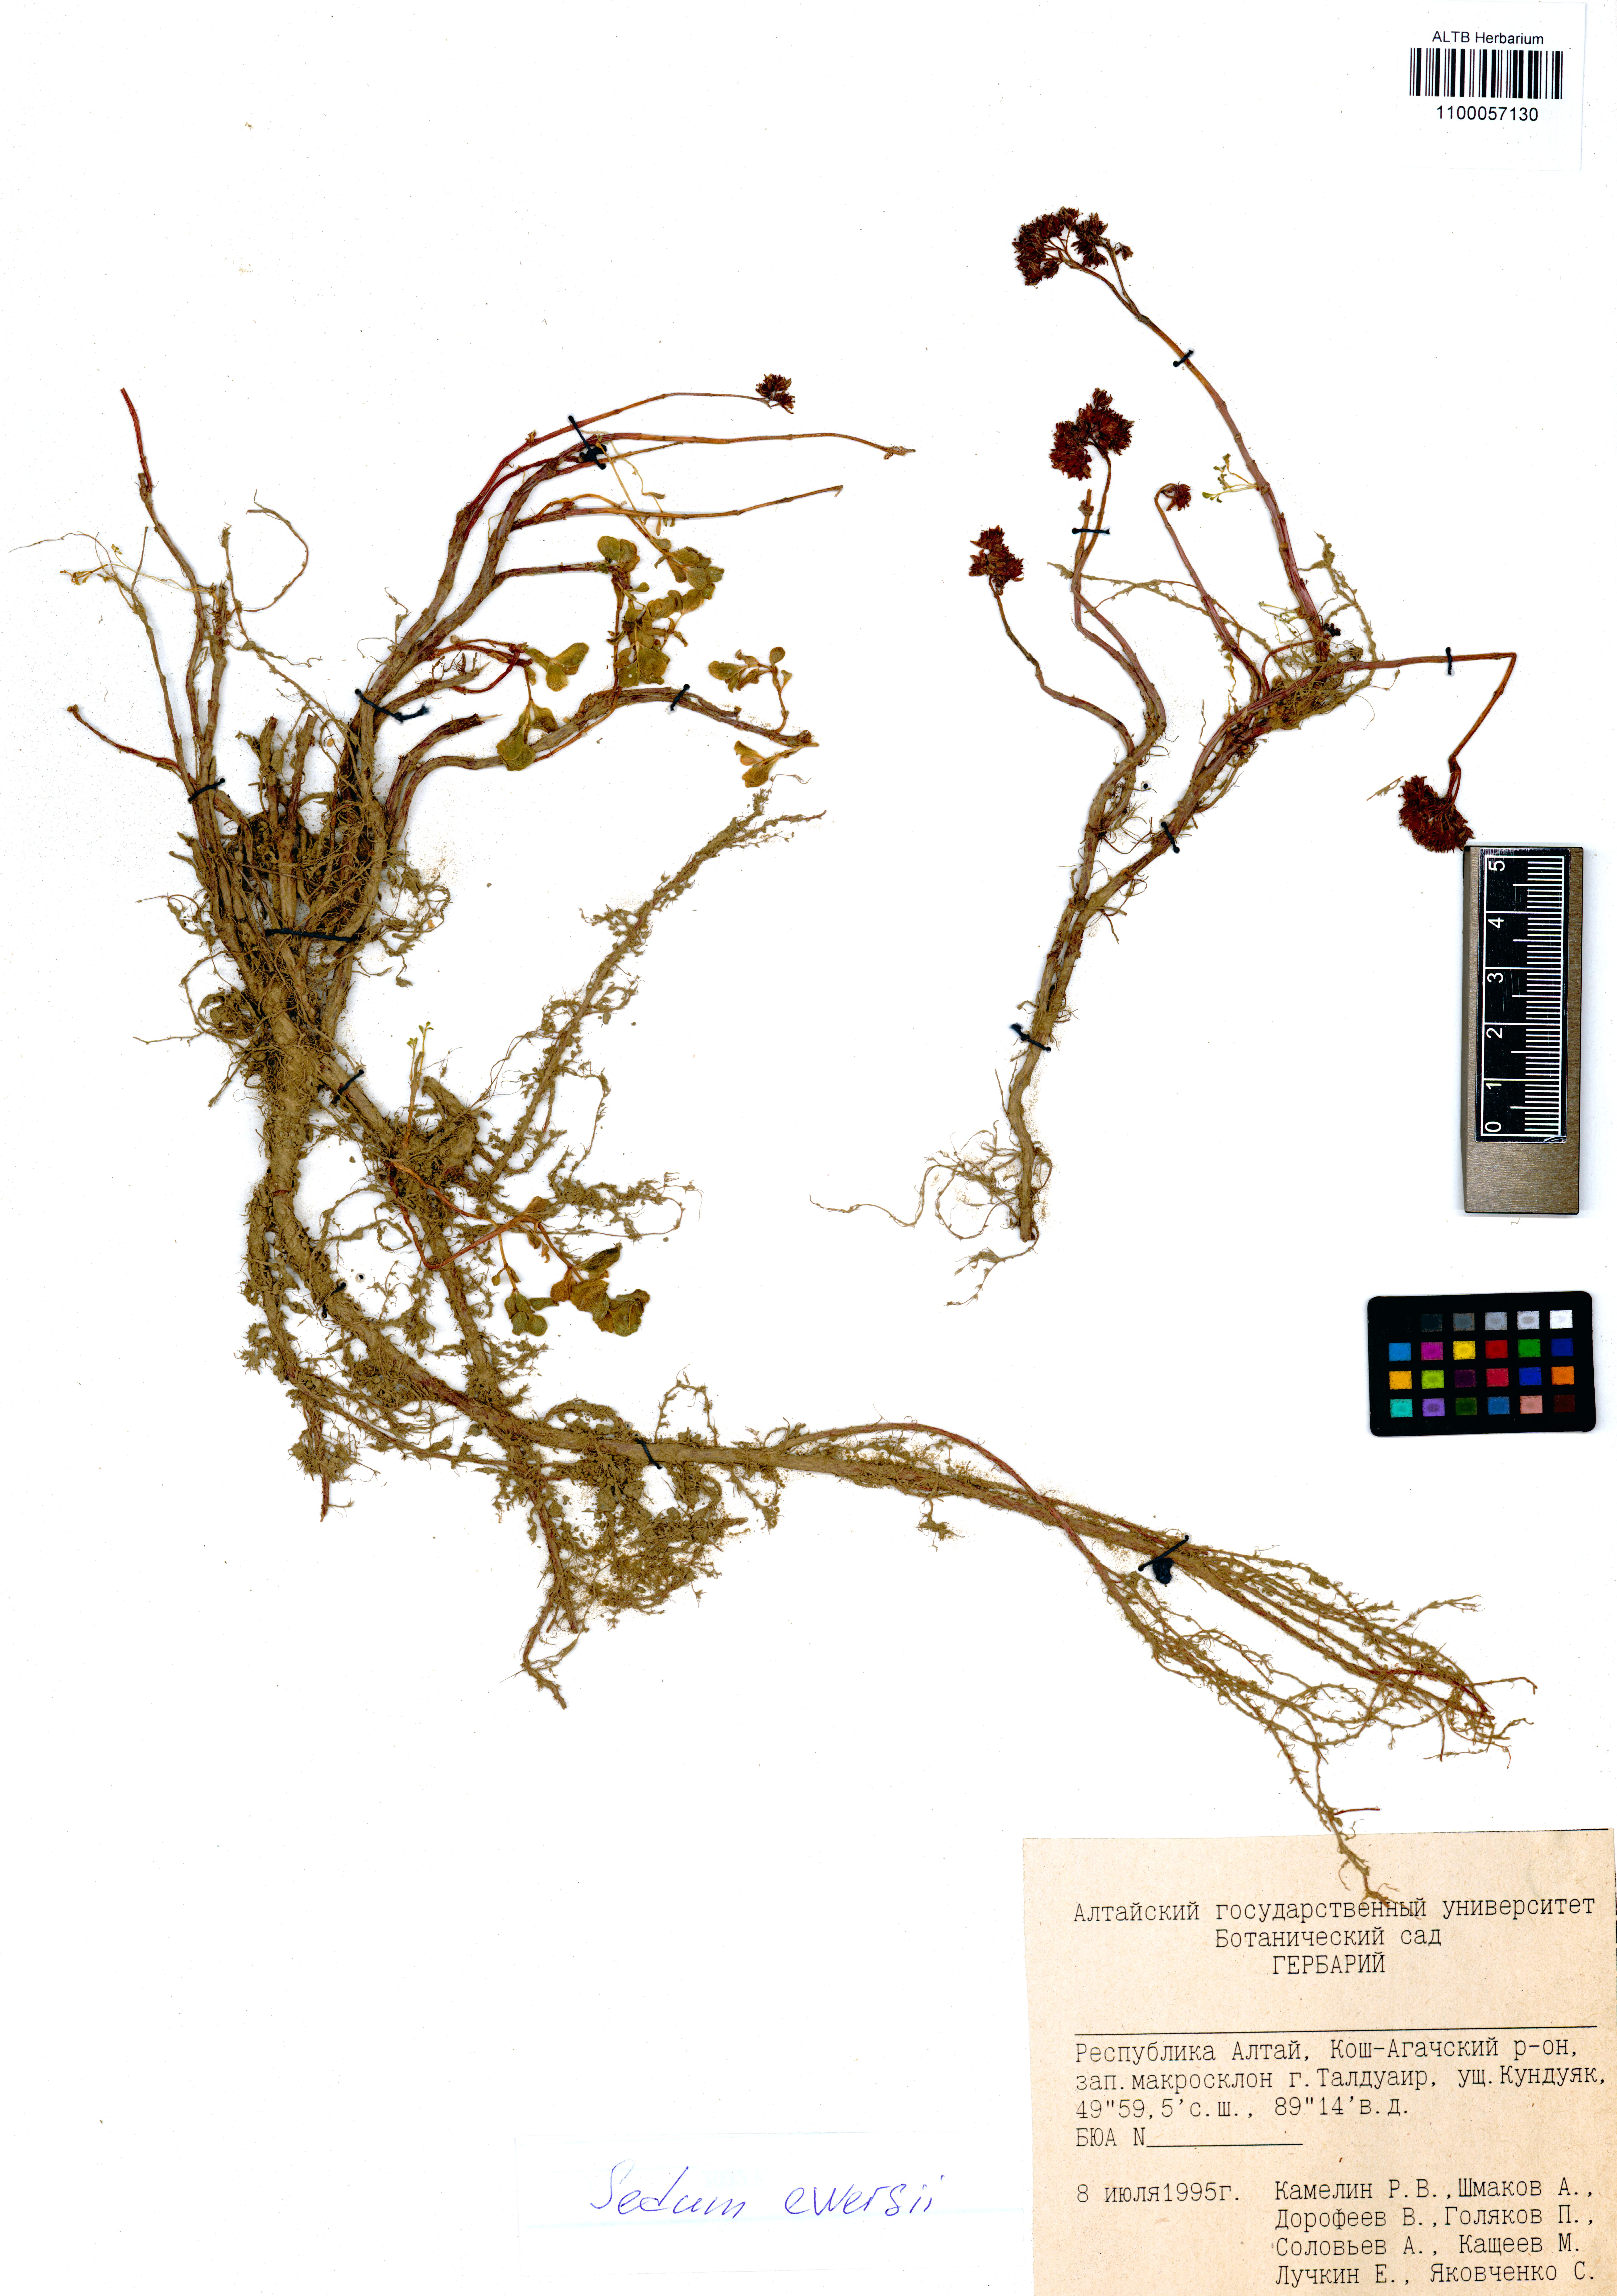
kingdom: Plantae
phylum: Tracheophyta
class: Magnoliopsida
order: Saxifragales
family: Crassulaceae
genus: Hylotelephium
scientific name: Hylotelephium ewersii
